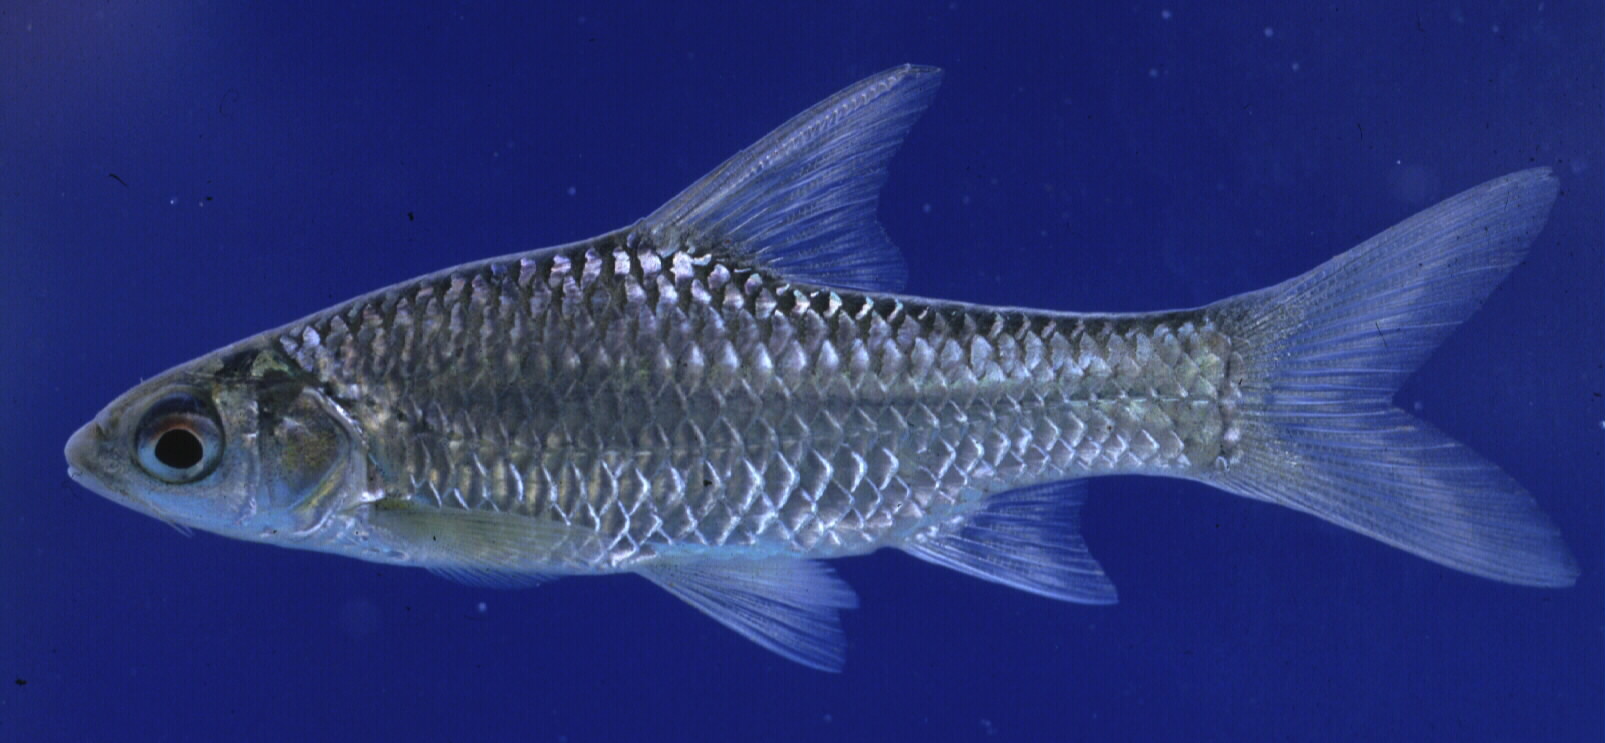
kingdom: Animalia
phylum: Chordata
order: Cypriniformes
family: Cyprinidae
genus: Enteromius
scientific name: Enteromius afrohamiltoni
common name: Hamilton's barb
